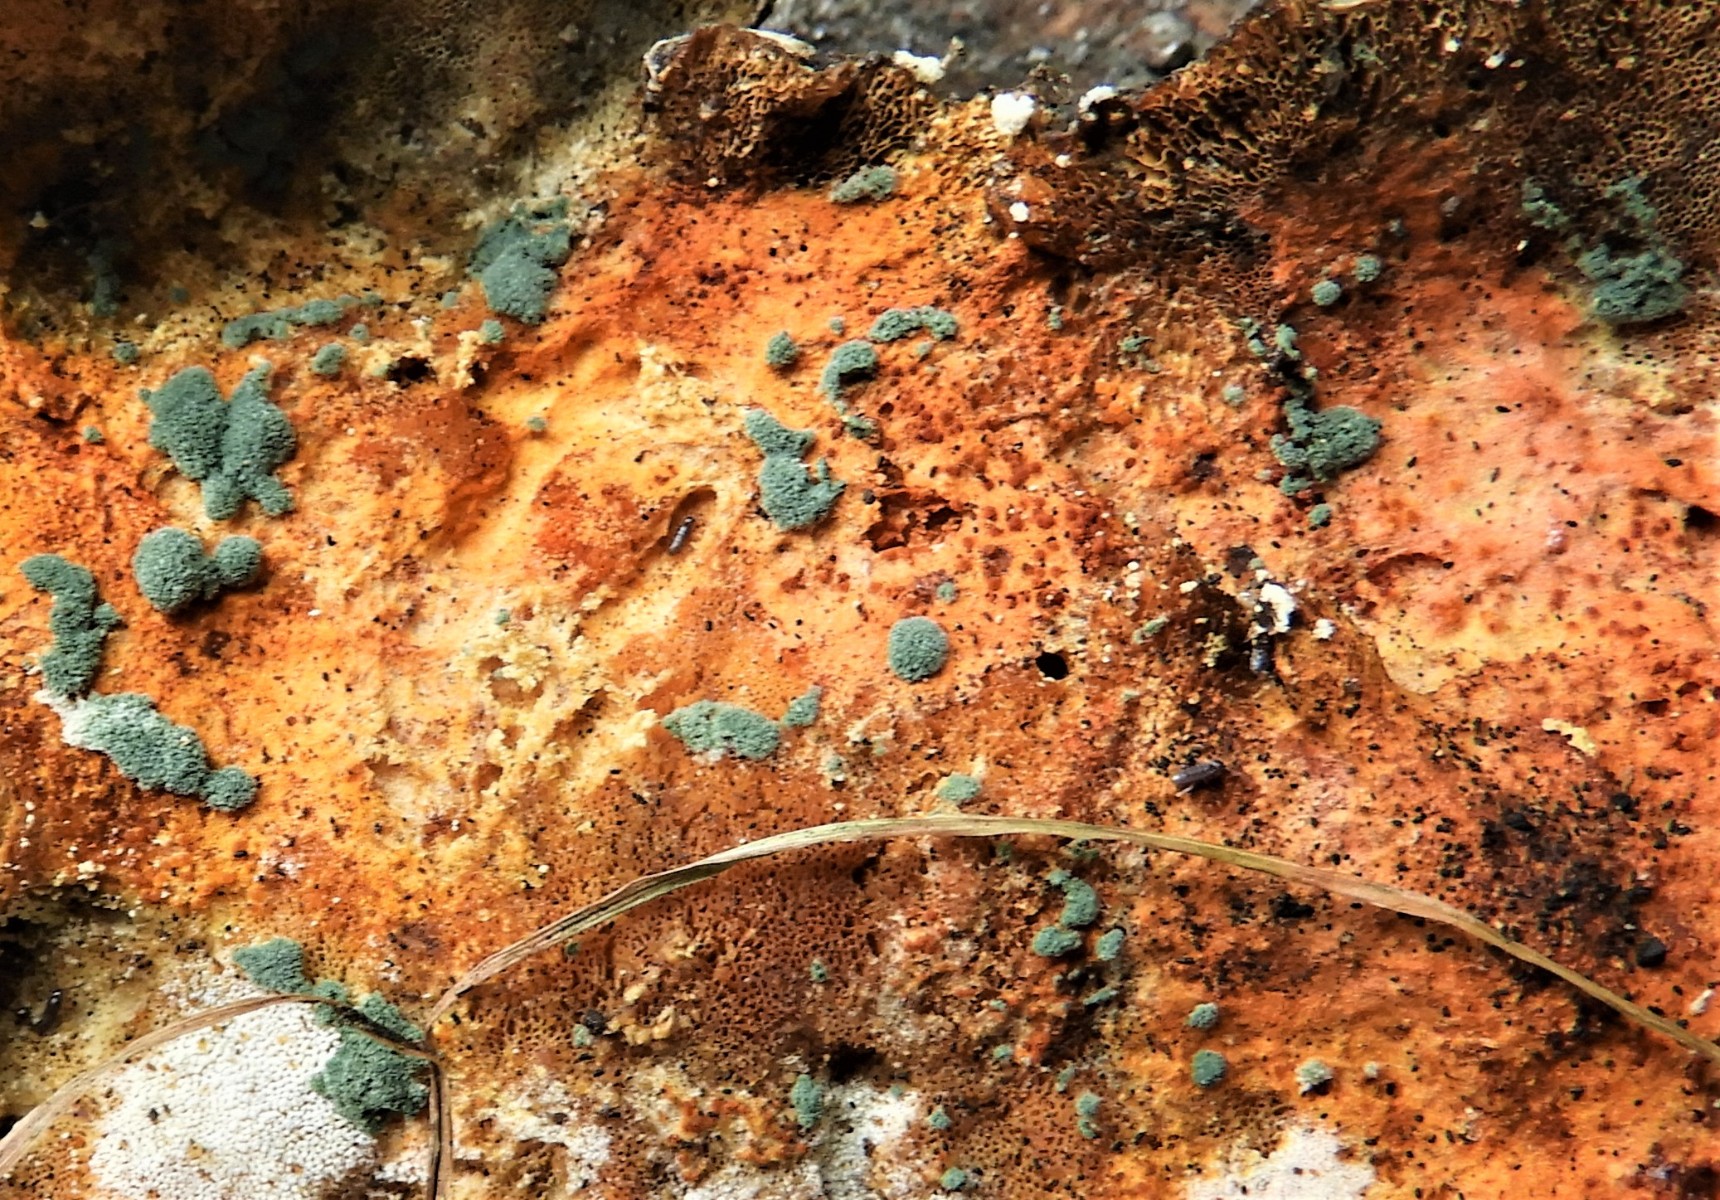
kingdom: Fungi
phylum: Ascomycota
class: Sordariomycetes
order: Hypocreales
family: Hypocreaceae
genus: Trichoderma
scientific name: Trichoderma
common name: kødkerne
